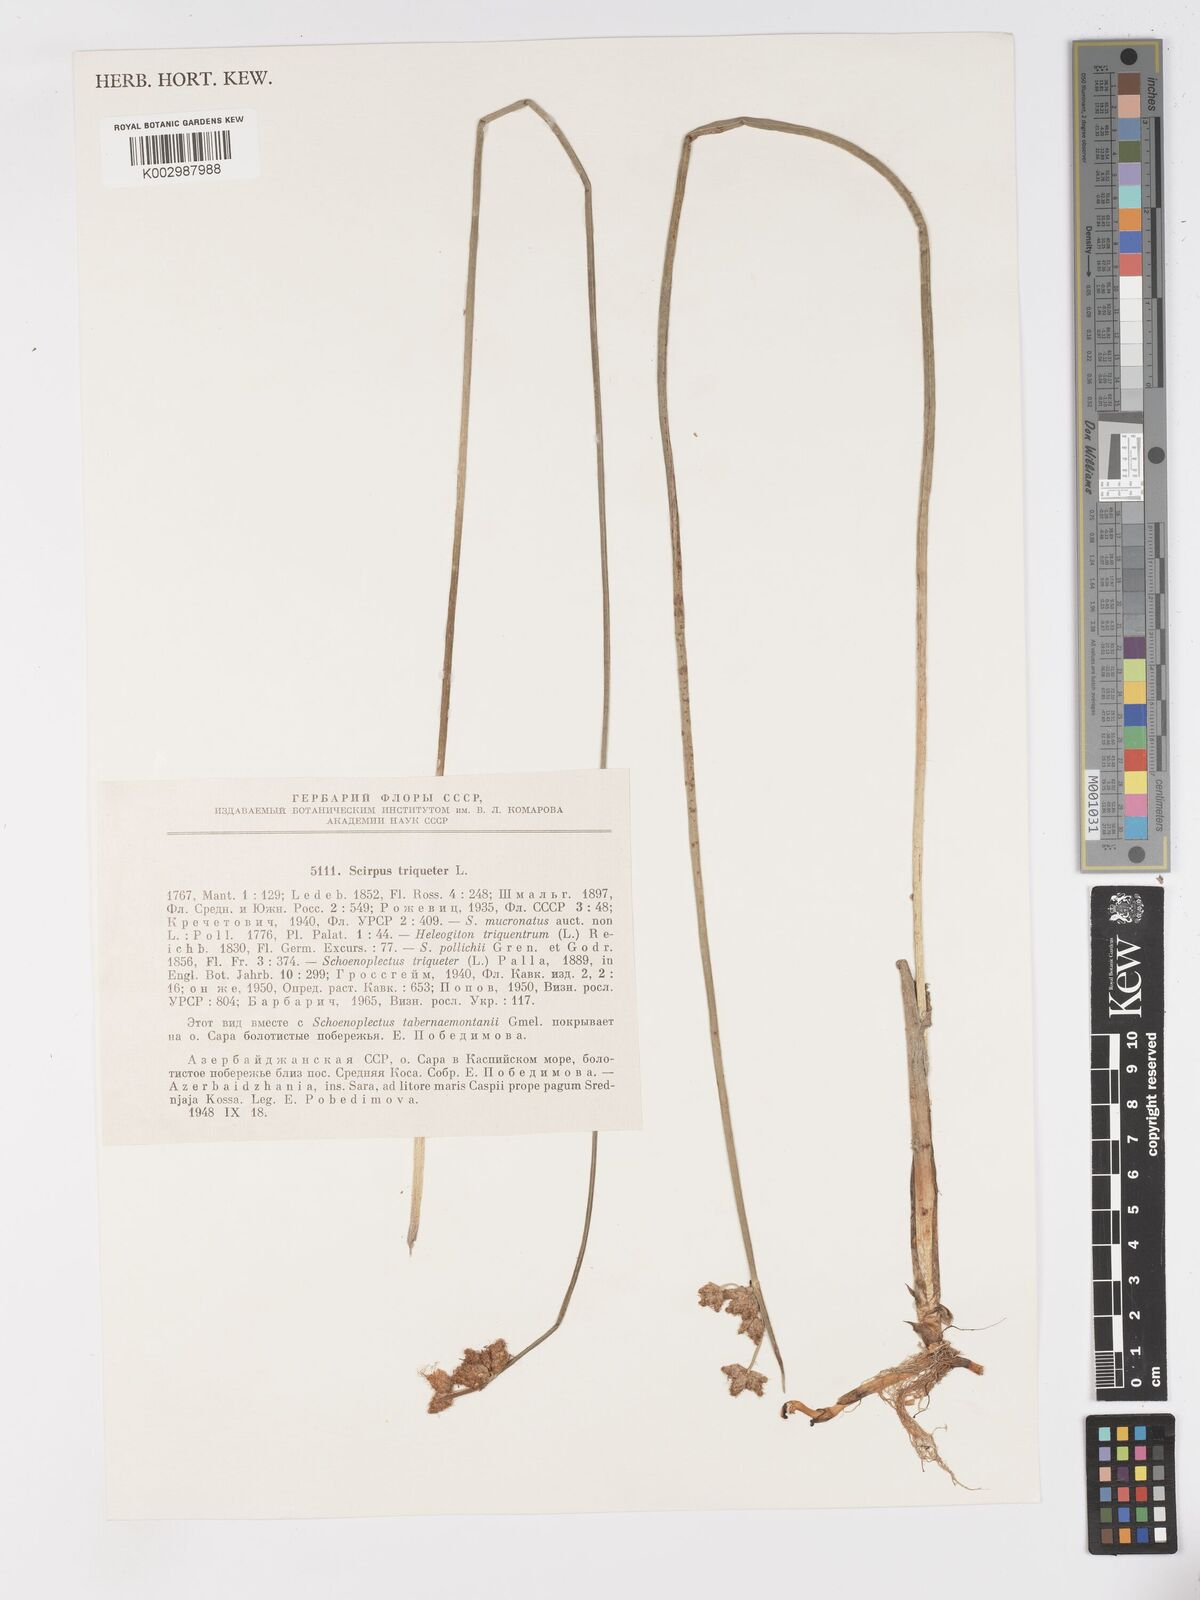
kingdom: Plantae
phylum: Tracheophyta
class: Liliopsida
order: Poales
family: Cyperaceae
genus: Schoenoplectus
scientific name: Schoenoplectus triqueter
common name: Triangular club-rush
